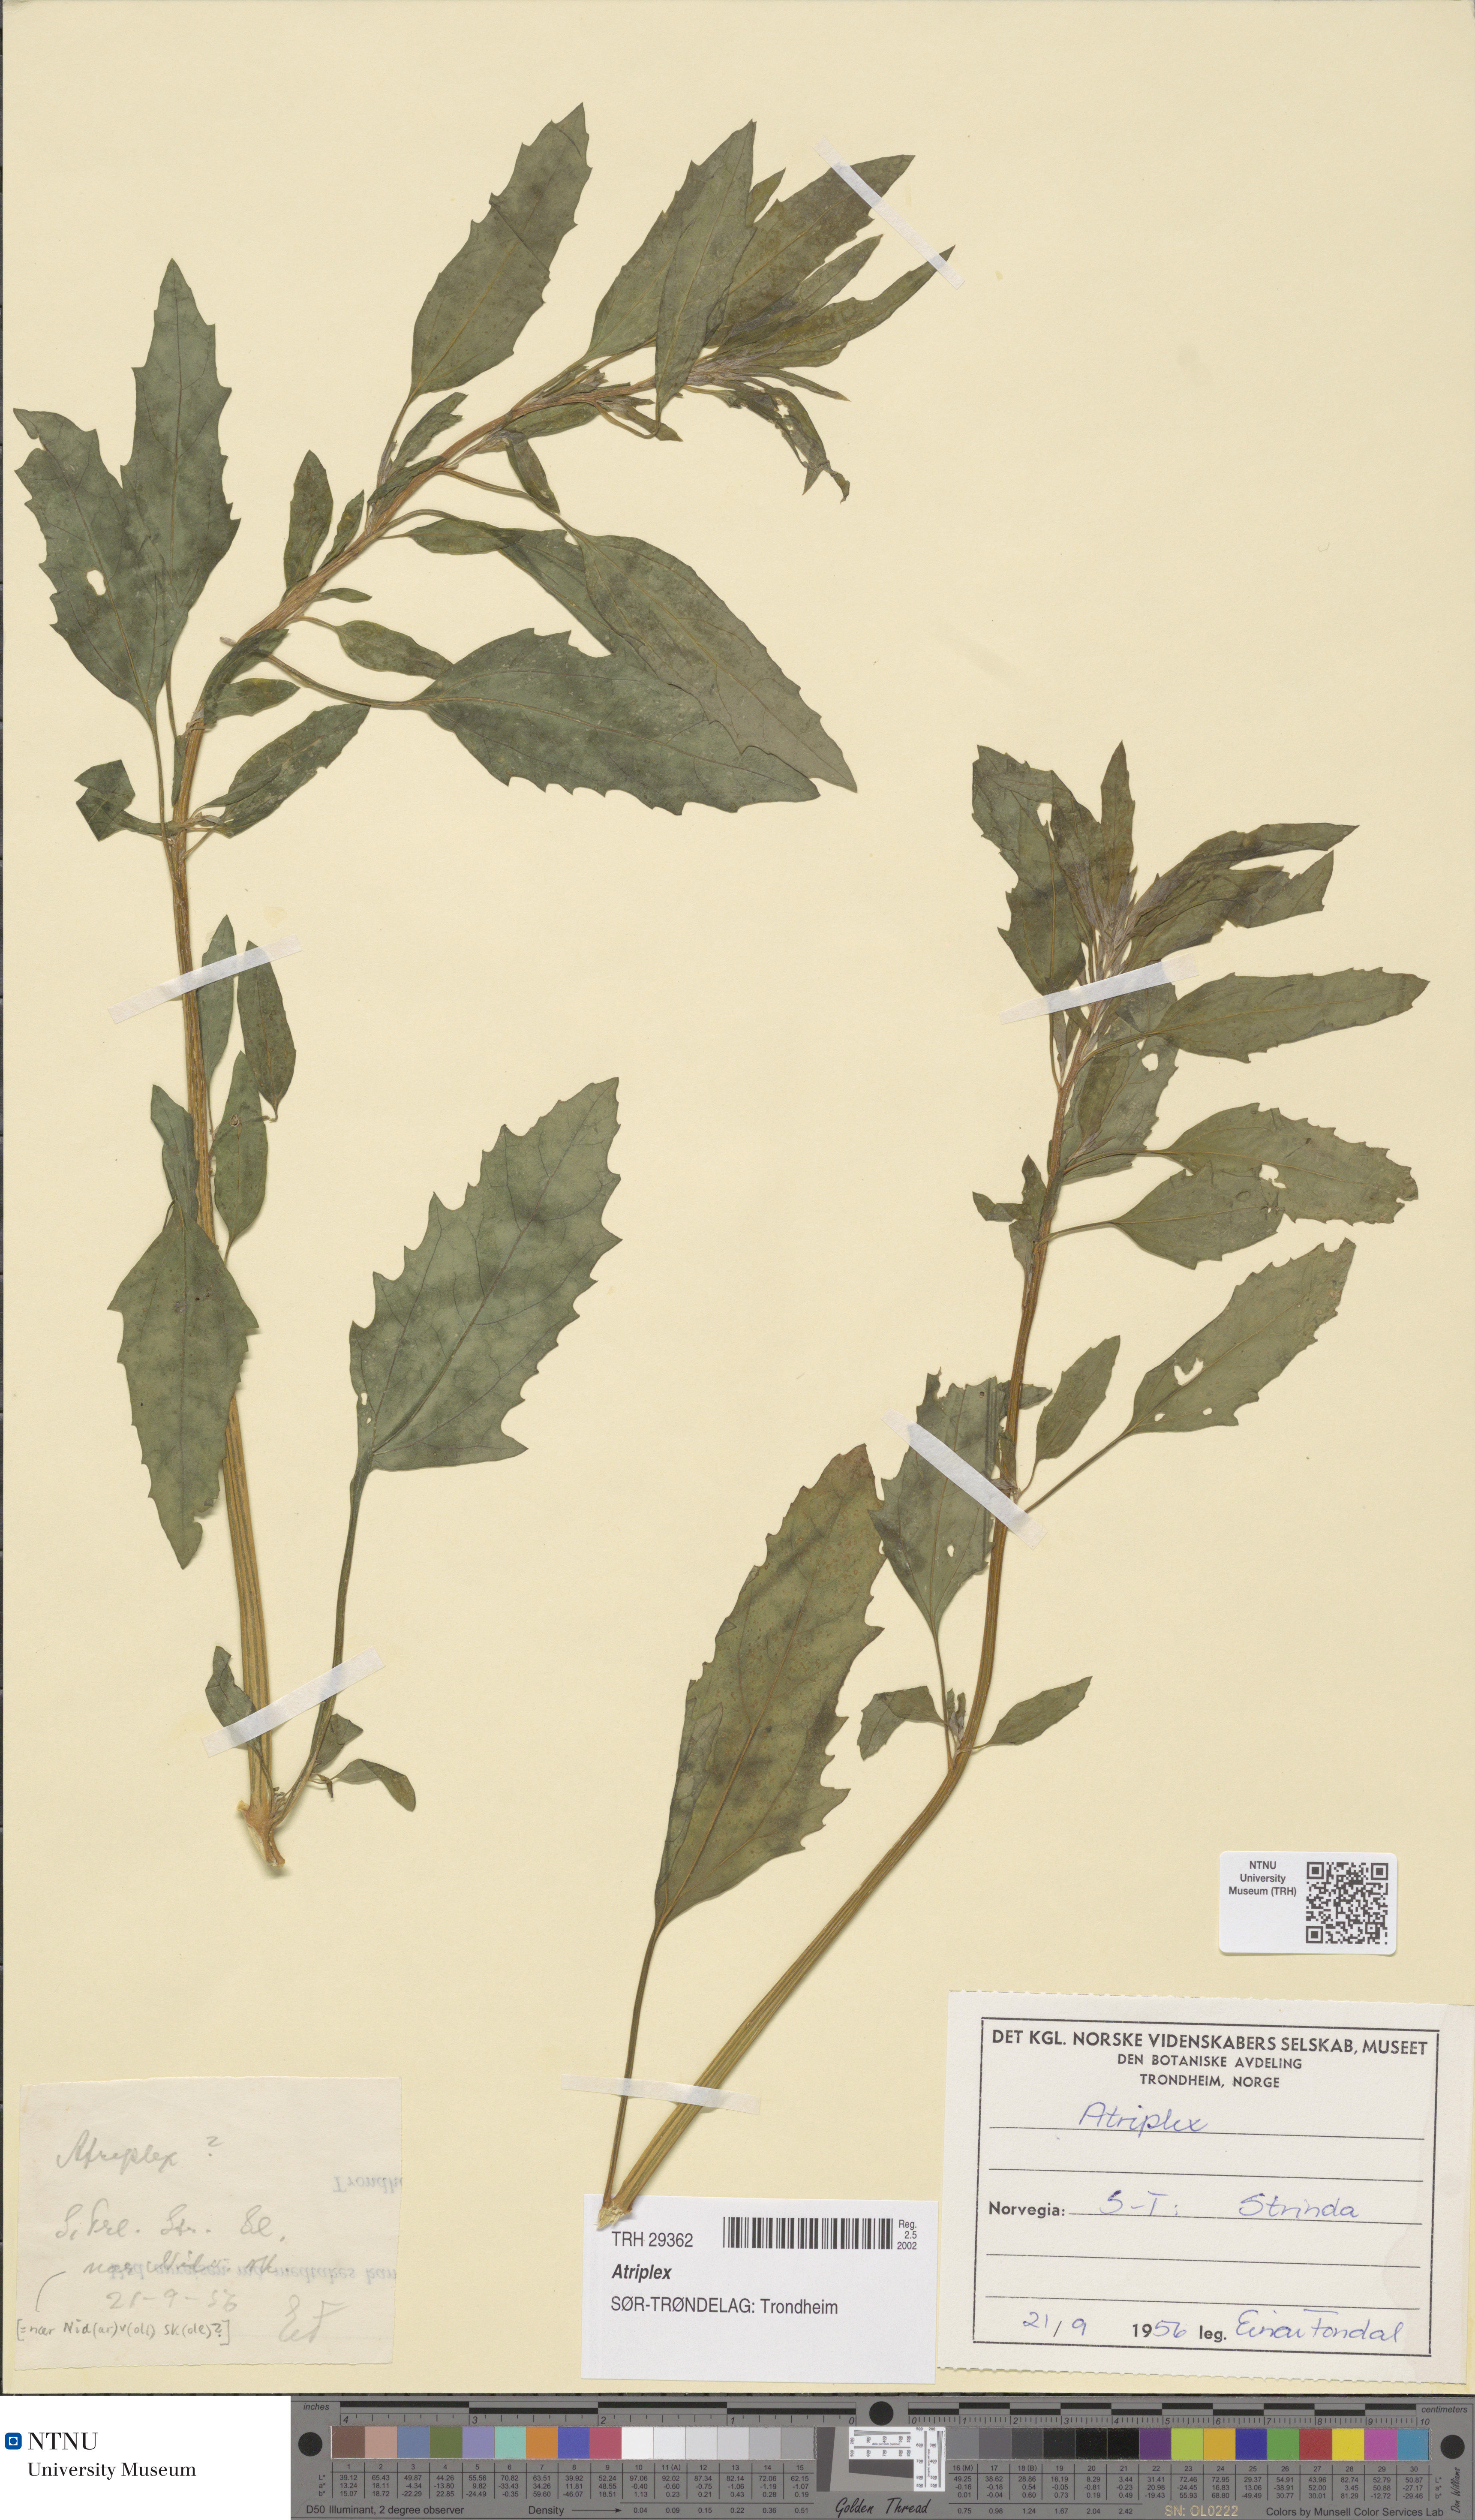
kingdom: Plantae
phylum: Tracheophyta
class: Magnoliopsida
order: Caryophyllales
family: Amaranthaceae
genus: Atriplex
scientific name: Atriplex
